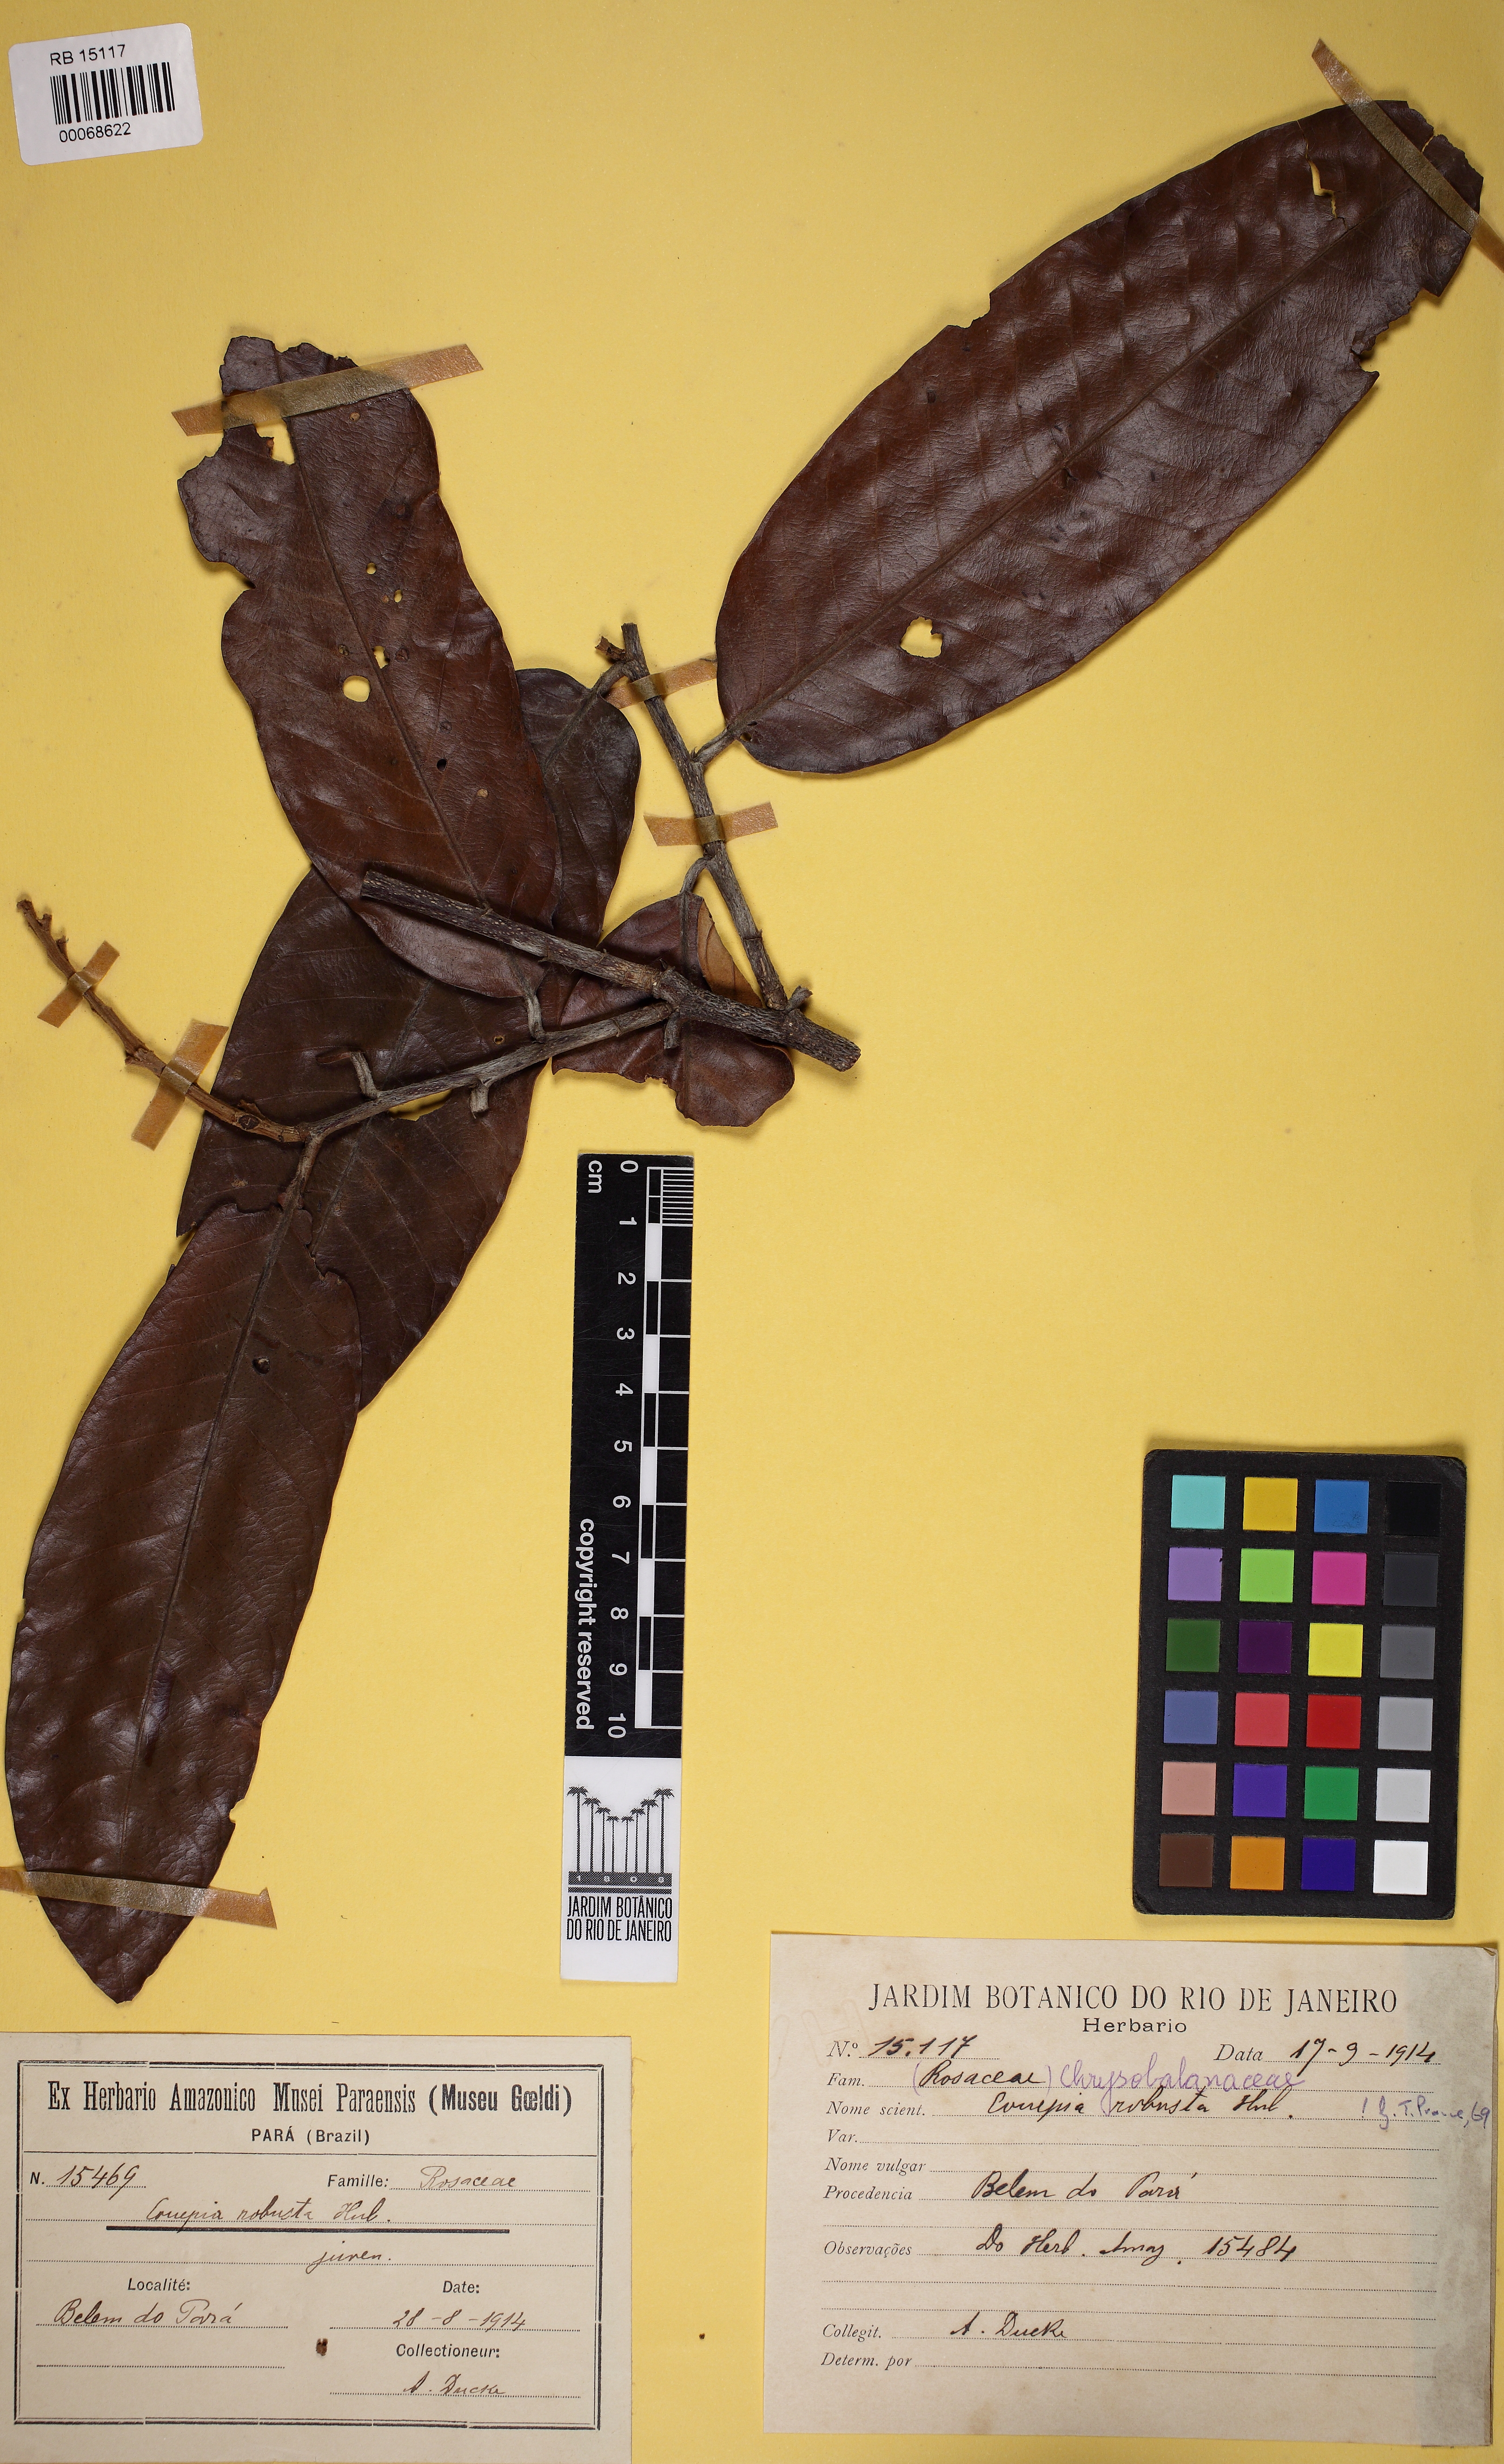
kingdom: Plantae
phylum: Tracheophyta
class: Magnoliopsida
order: Malpighiales
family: Chrysobalanaceae
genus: Couepia
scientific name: Couepia robusta
